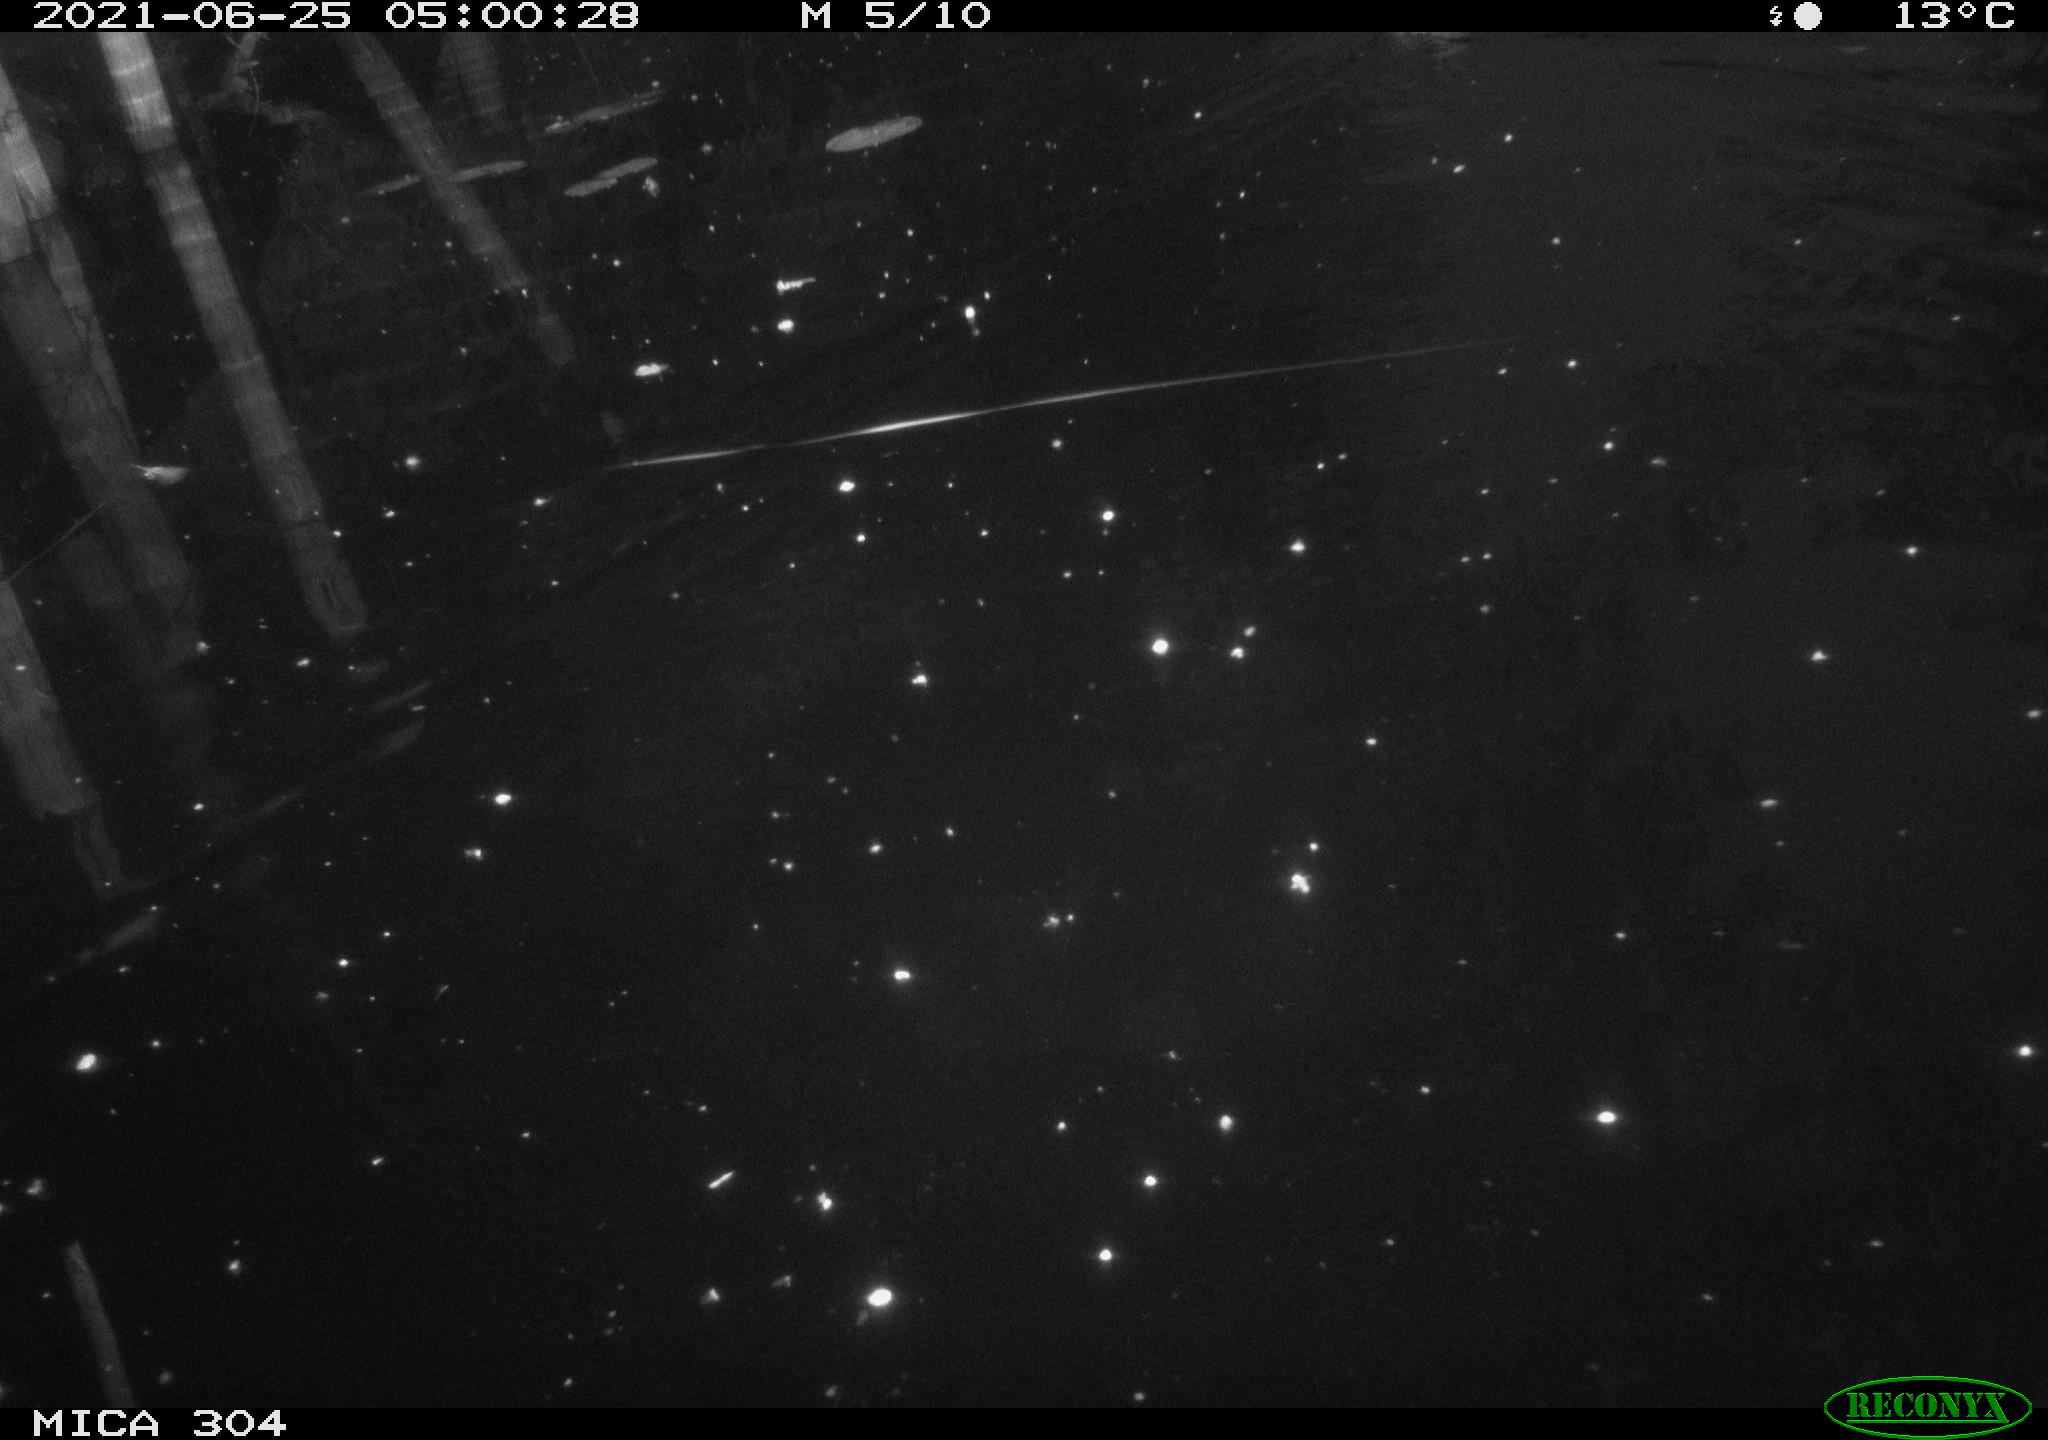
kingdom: Animalia
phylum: Chordata
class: Aves
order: Anseriformes
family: Anatidae
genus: Anas
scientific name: Anas platyrhynchos
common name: Mallard
